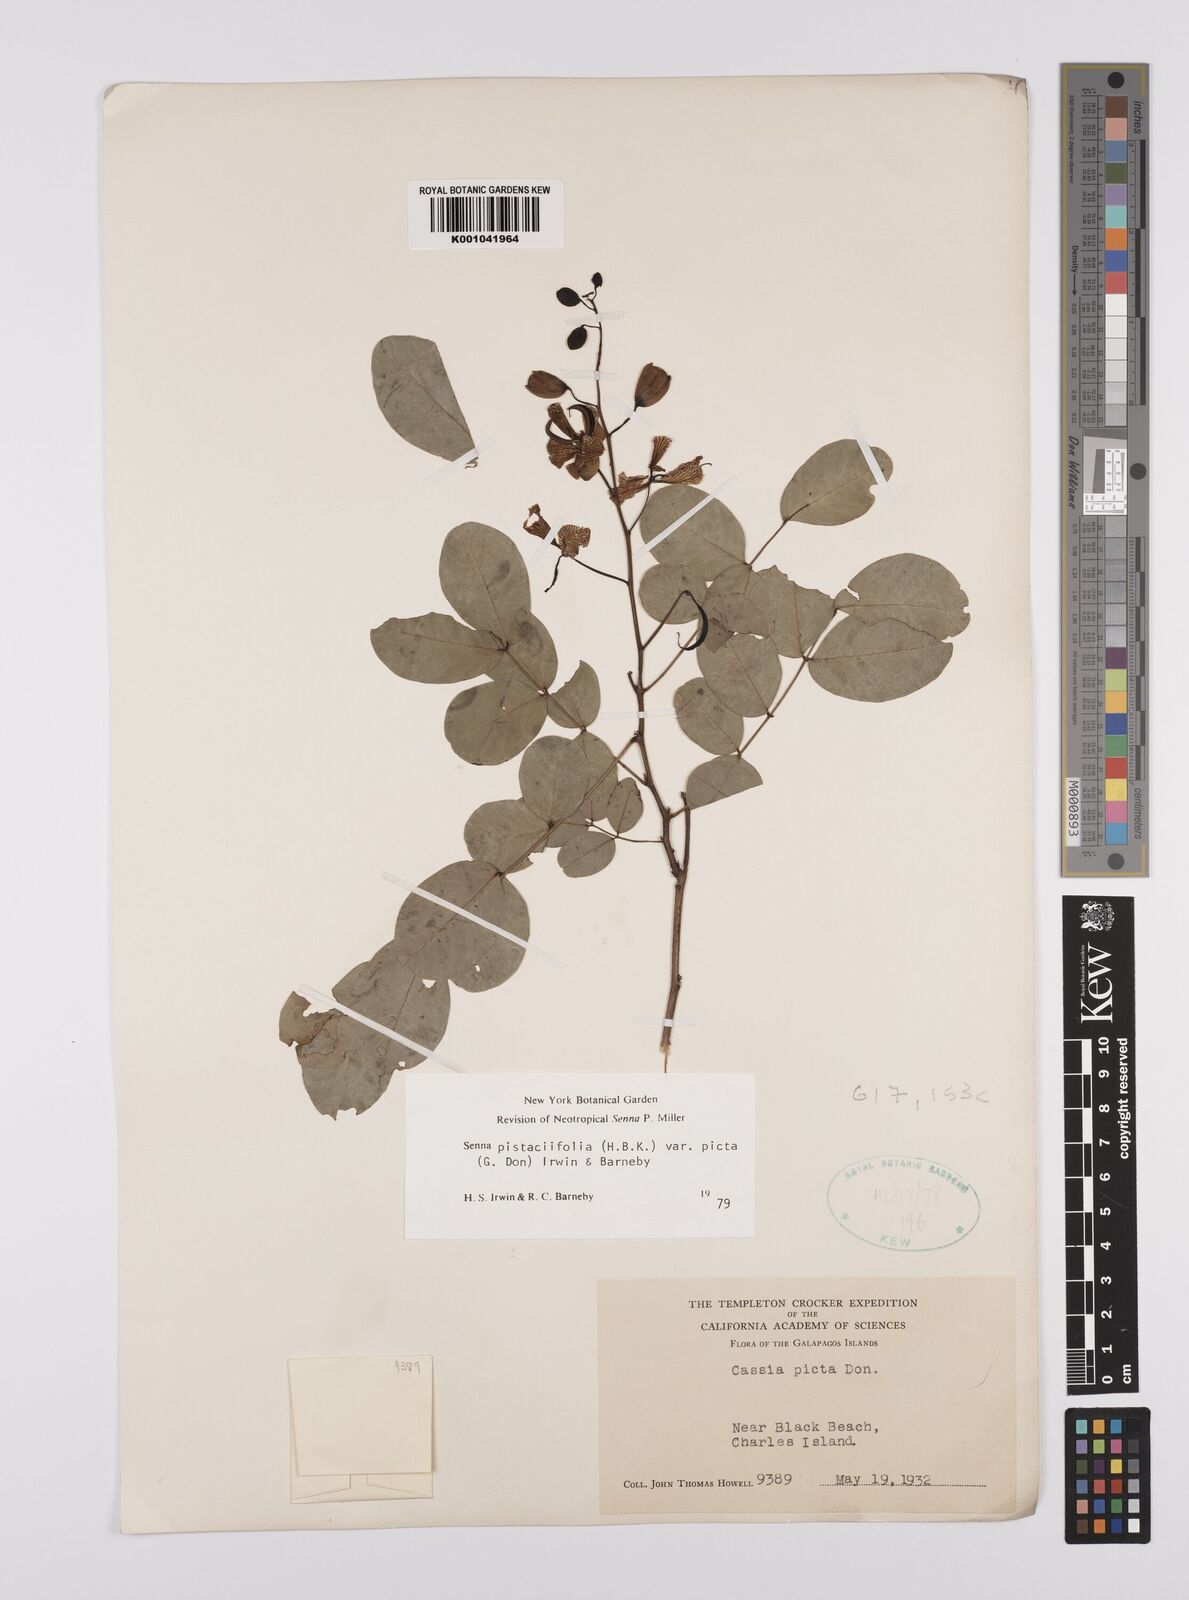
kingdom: Plantae
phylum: Tracheophyta
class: Magnoliopsida
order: Fabales
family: Fabaceae
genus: Senna
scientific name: Senna pistaciifolia
